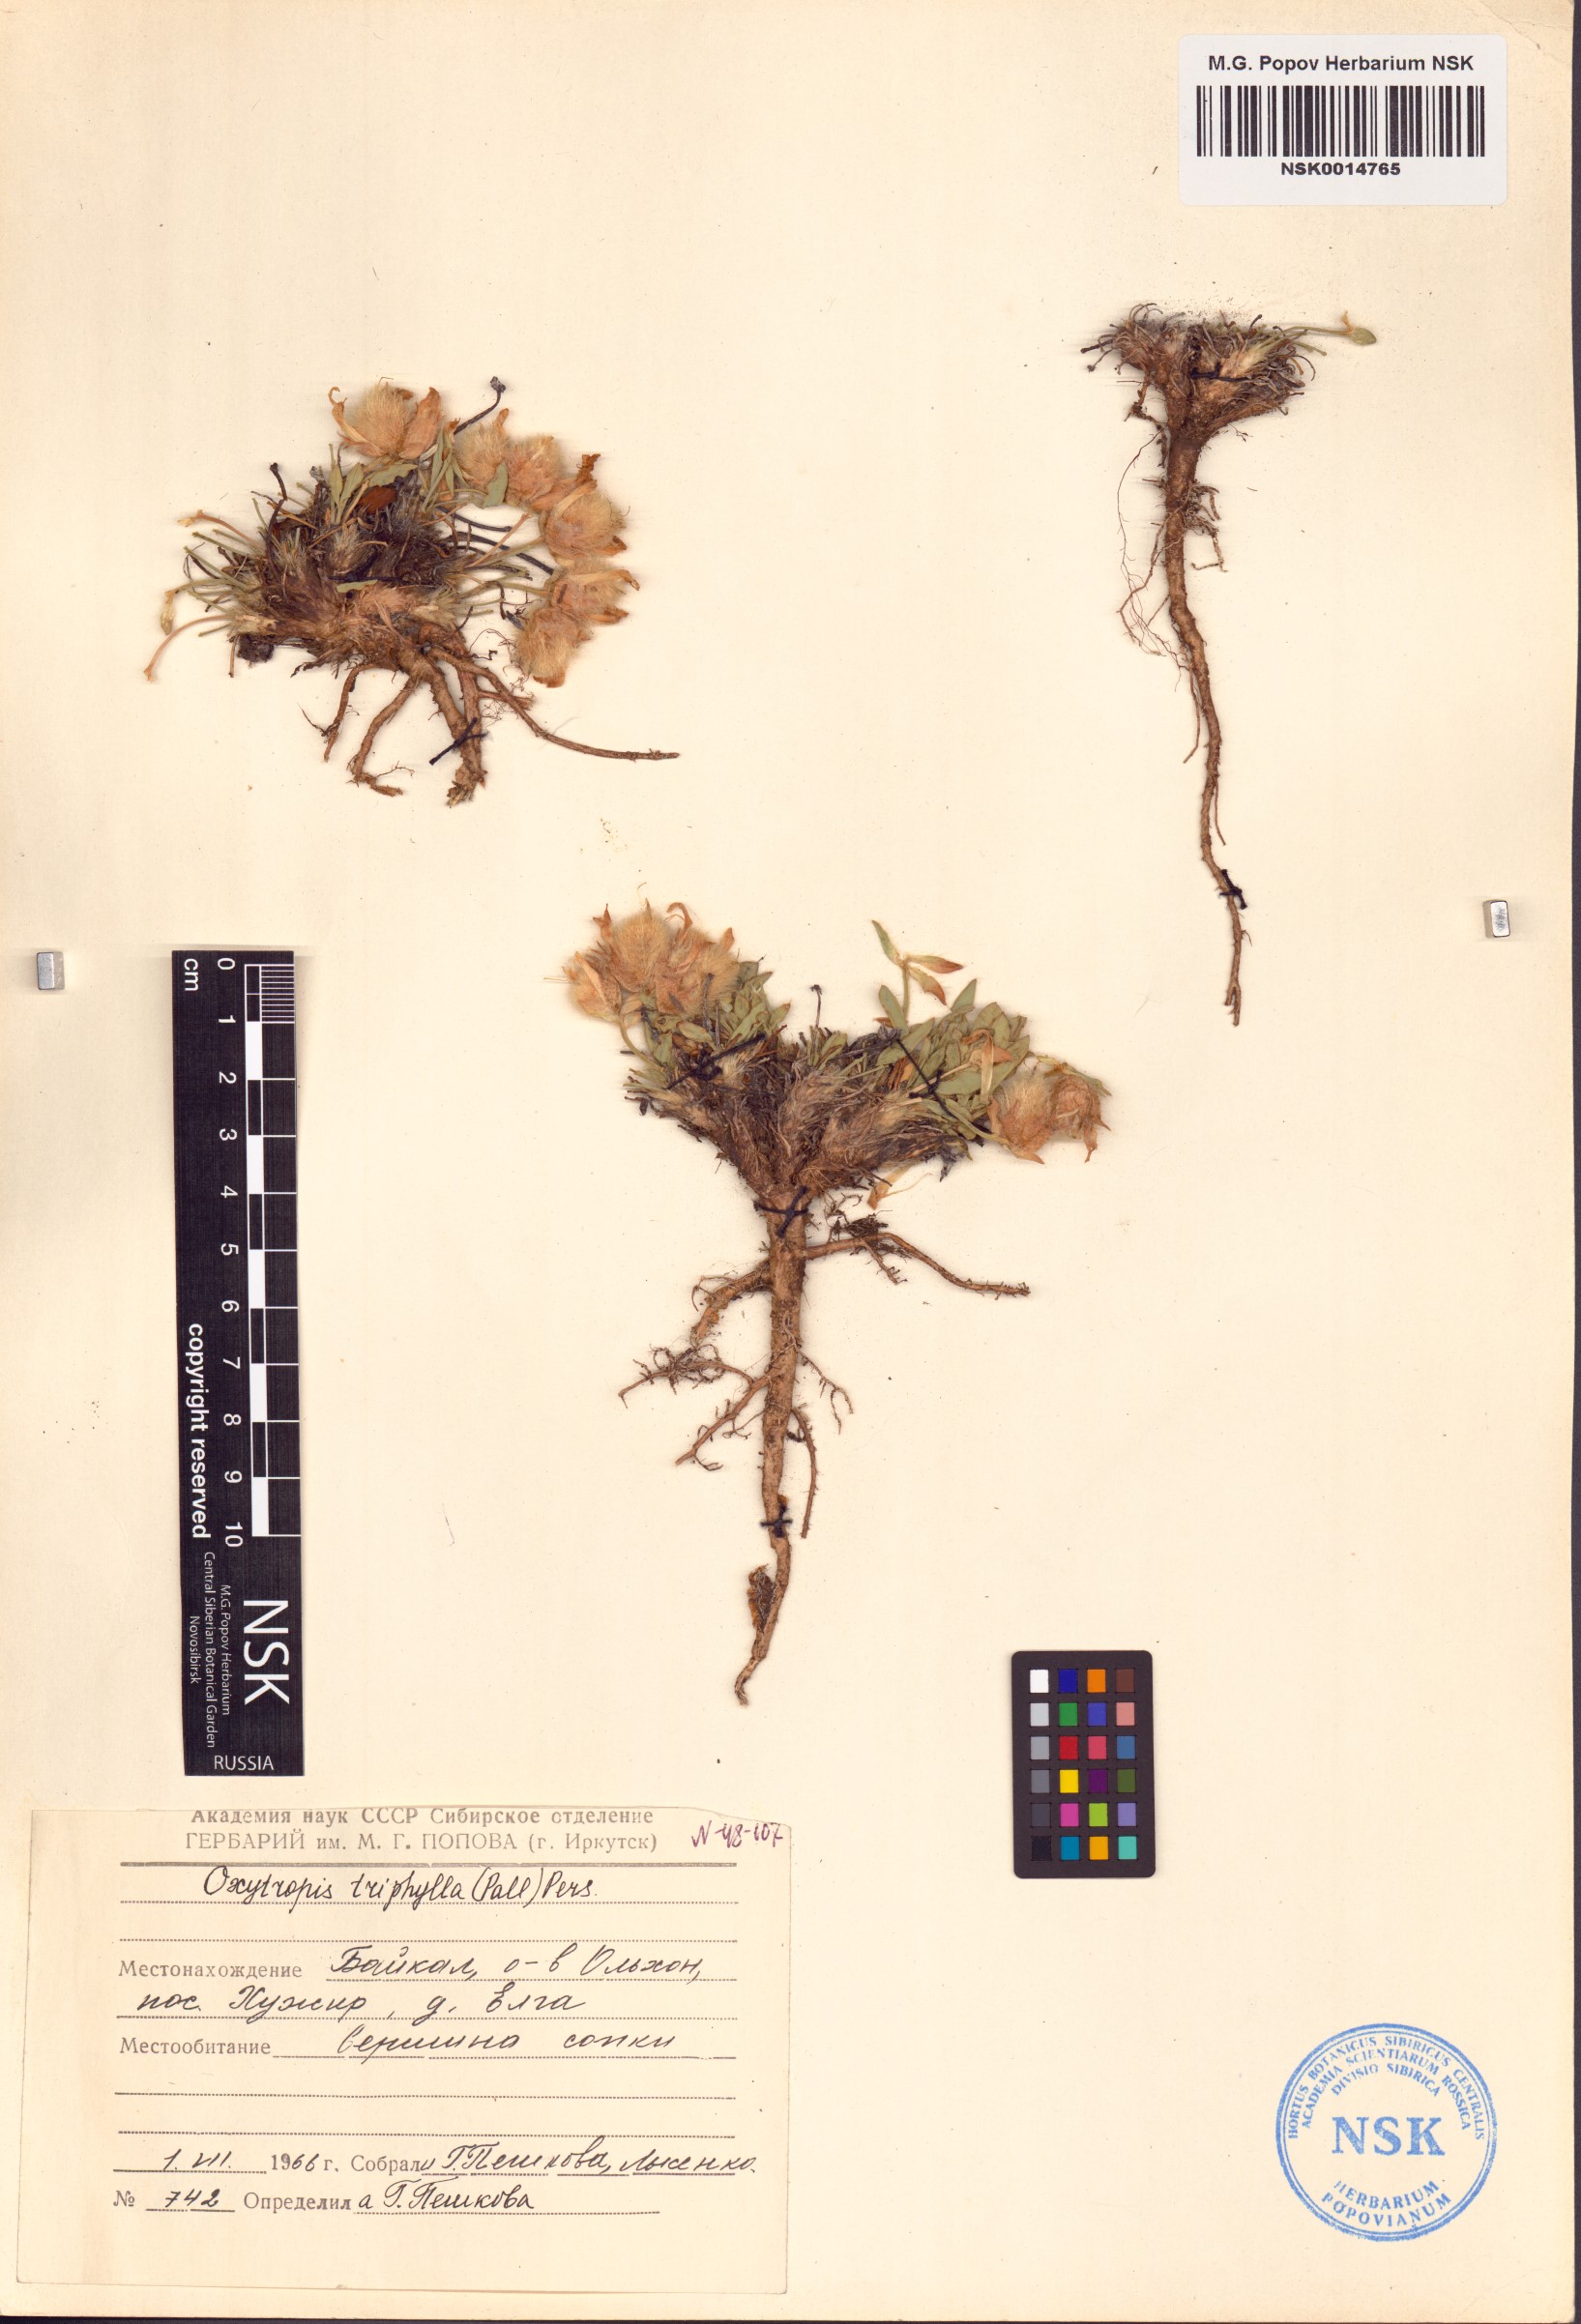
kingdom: Plantae
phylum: Tracheophyta
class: Magnoliopsida
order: Fabales
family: Fabaceae
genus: Oxytropis
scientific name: Oxytropis triphylla
